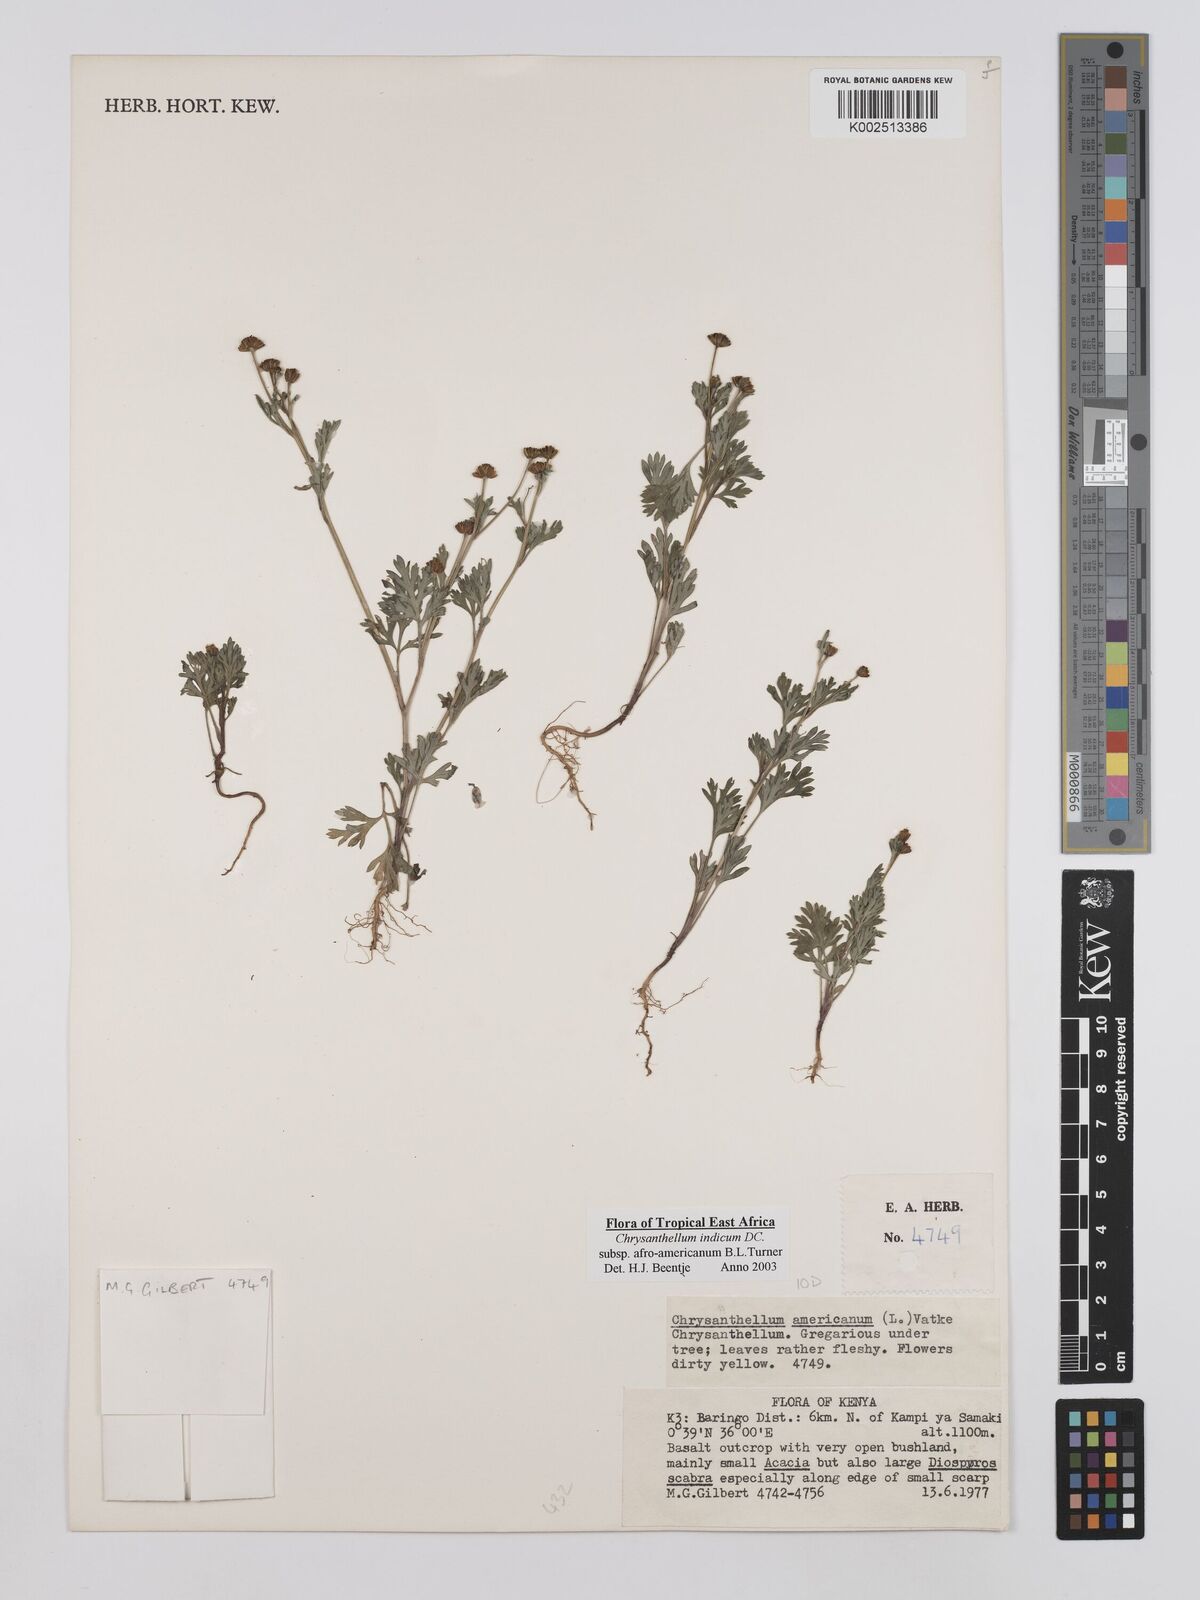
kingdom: Plantae
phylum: Tracheophyta
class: Magnoliopsida
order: Asterales
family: Asteraceae
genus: Chrysanthellum
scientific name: Chrysanthellum indicum
